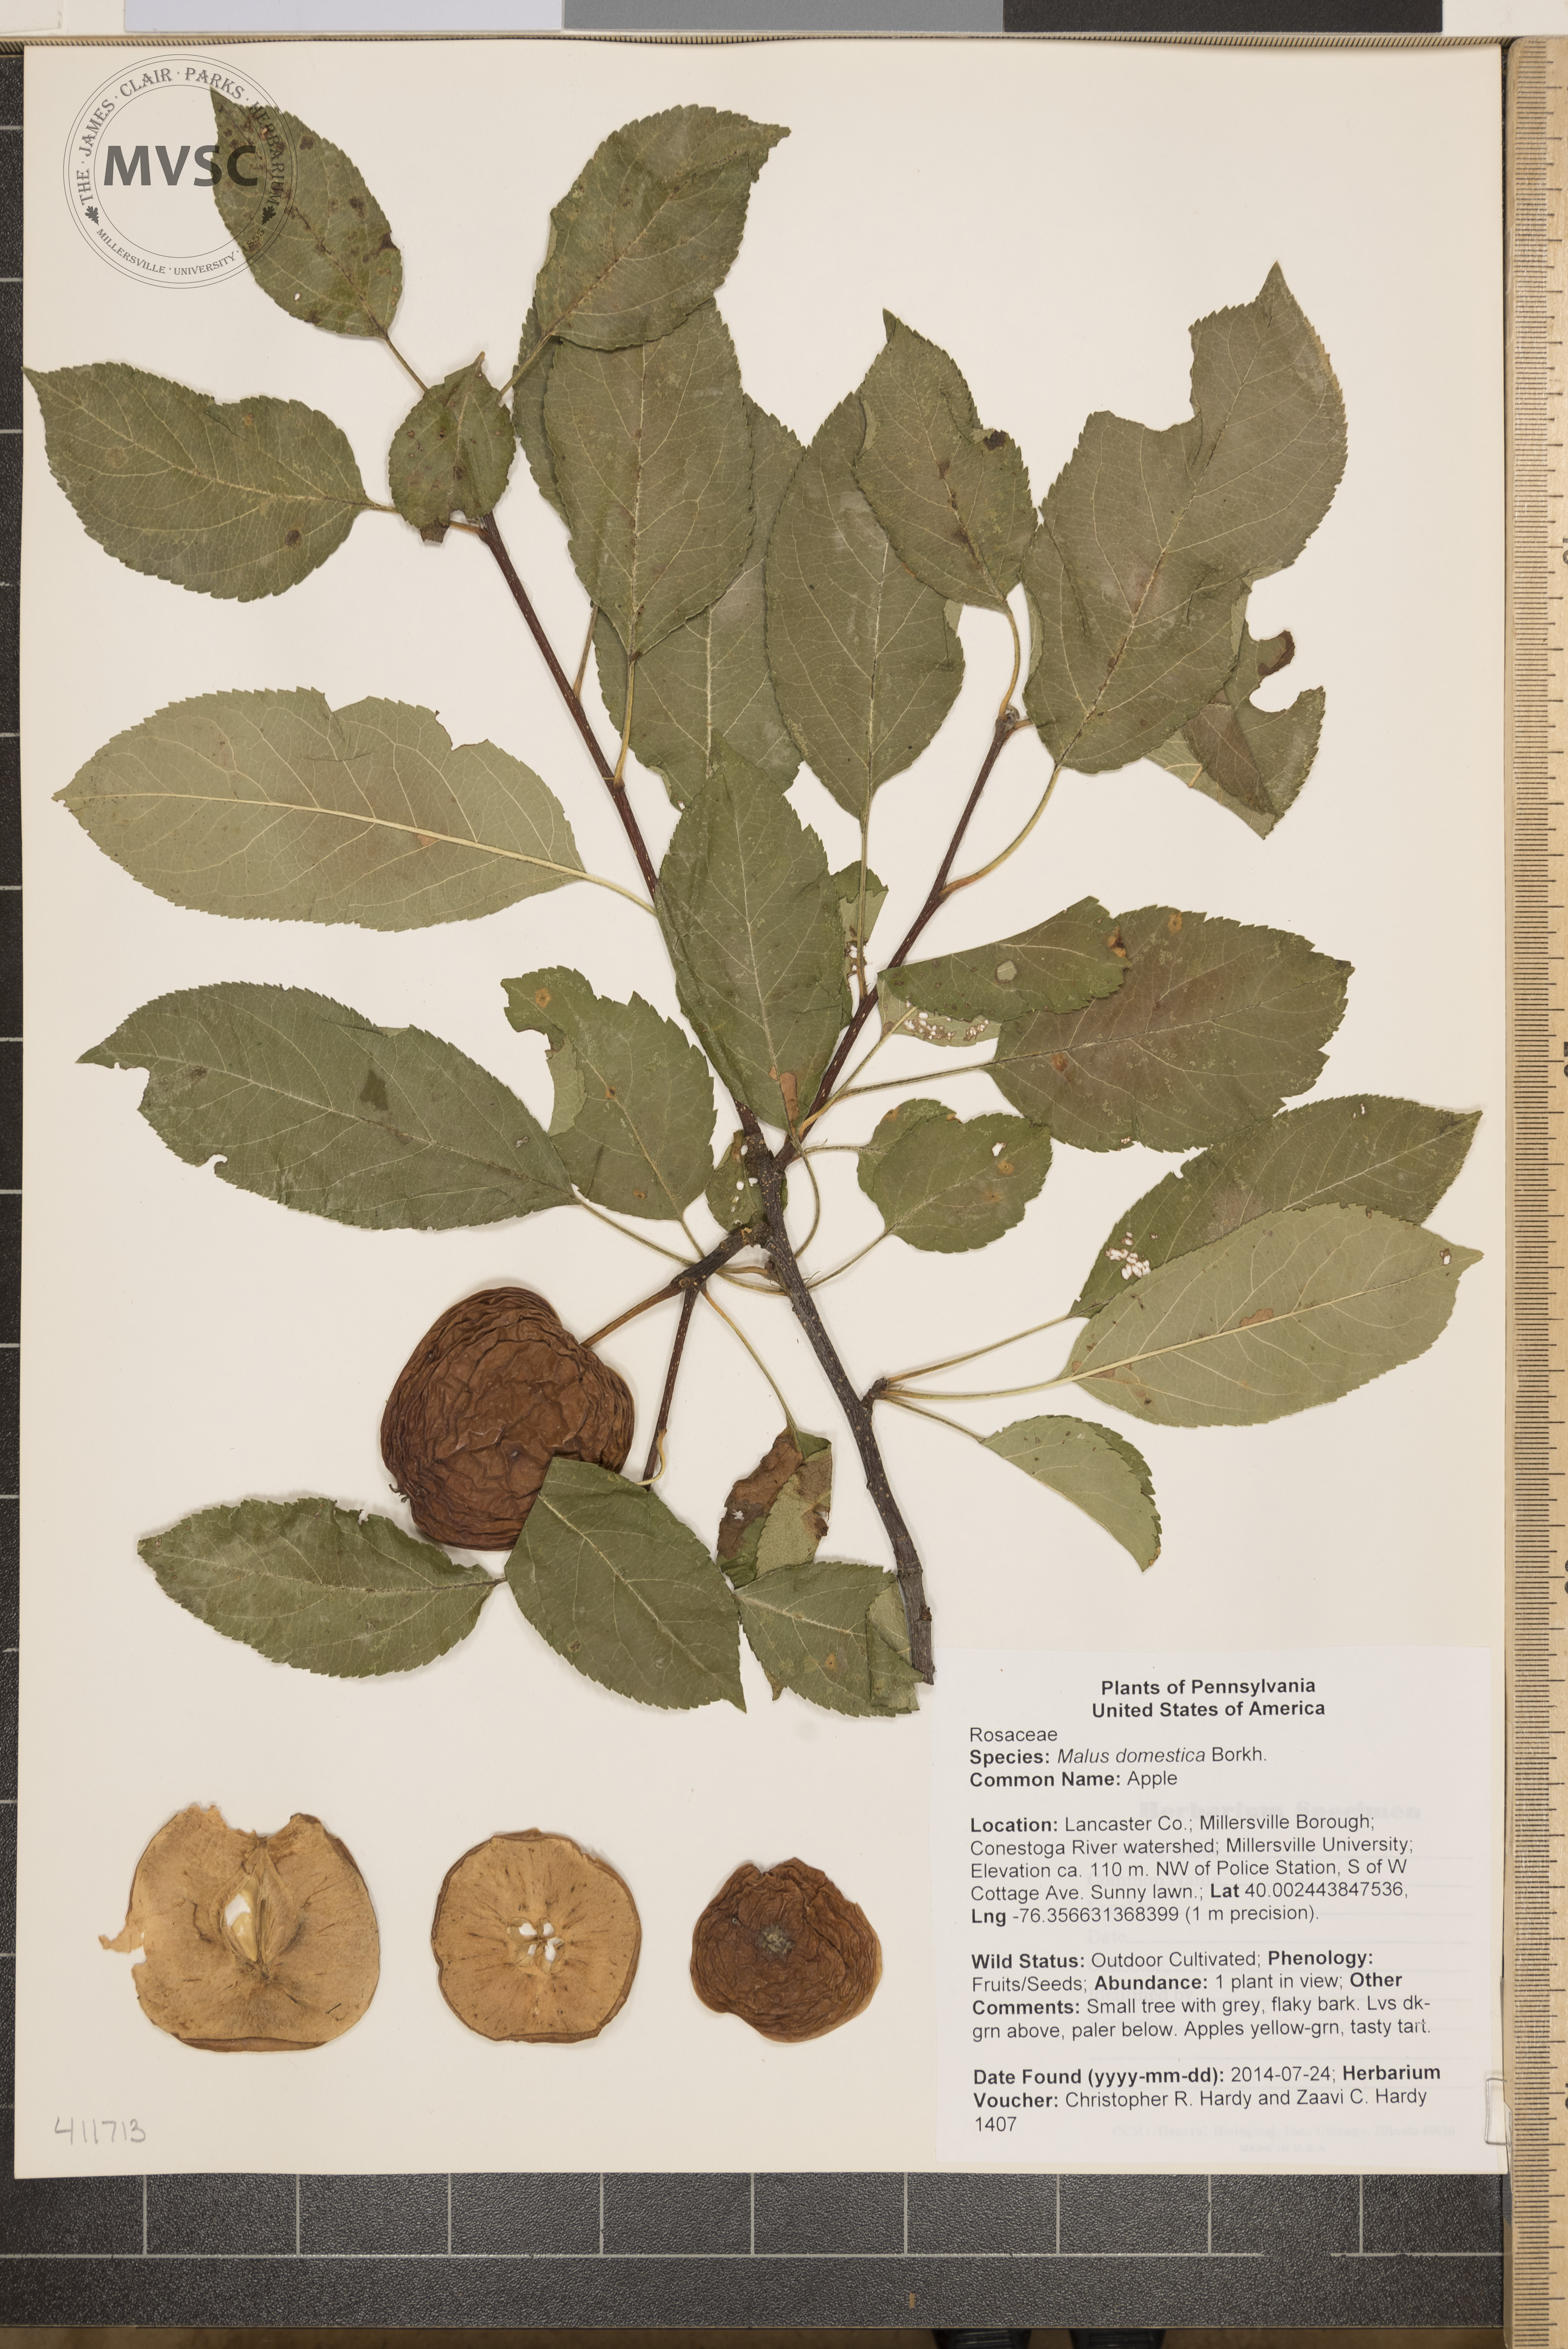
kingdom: Plantae
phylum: Tracheophyta
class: Magnoliopsida
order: Rosales
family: Rosaceae
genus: Malus
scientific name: Malus domestica
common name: Apple
